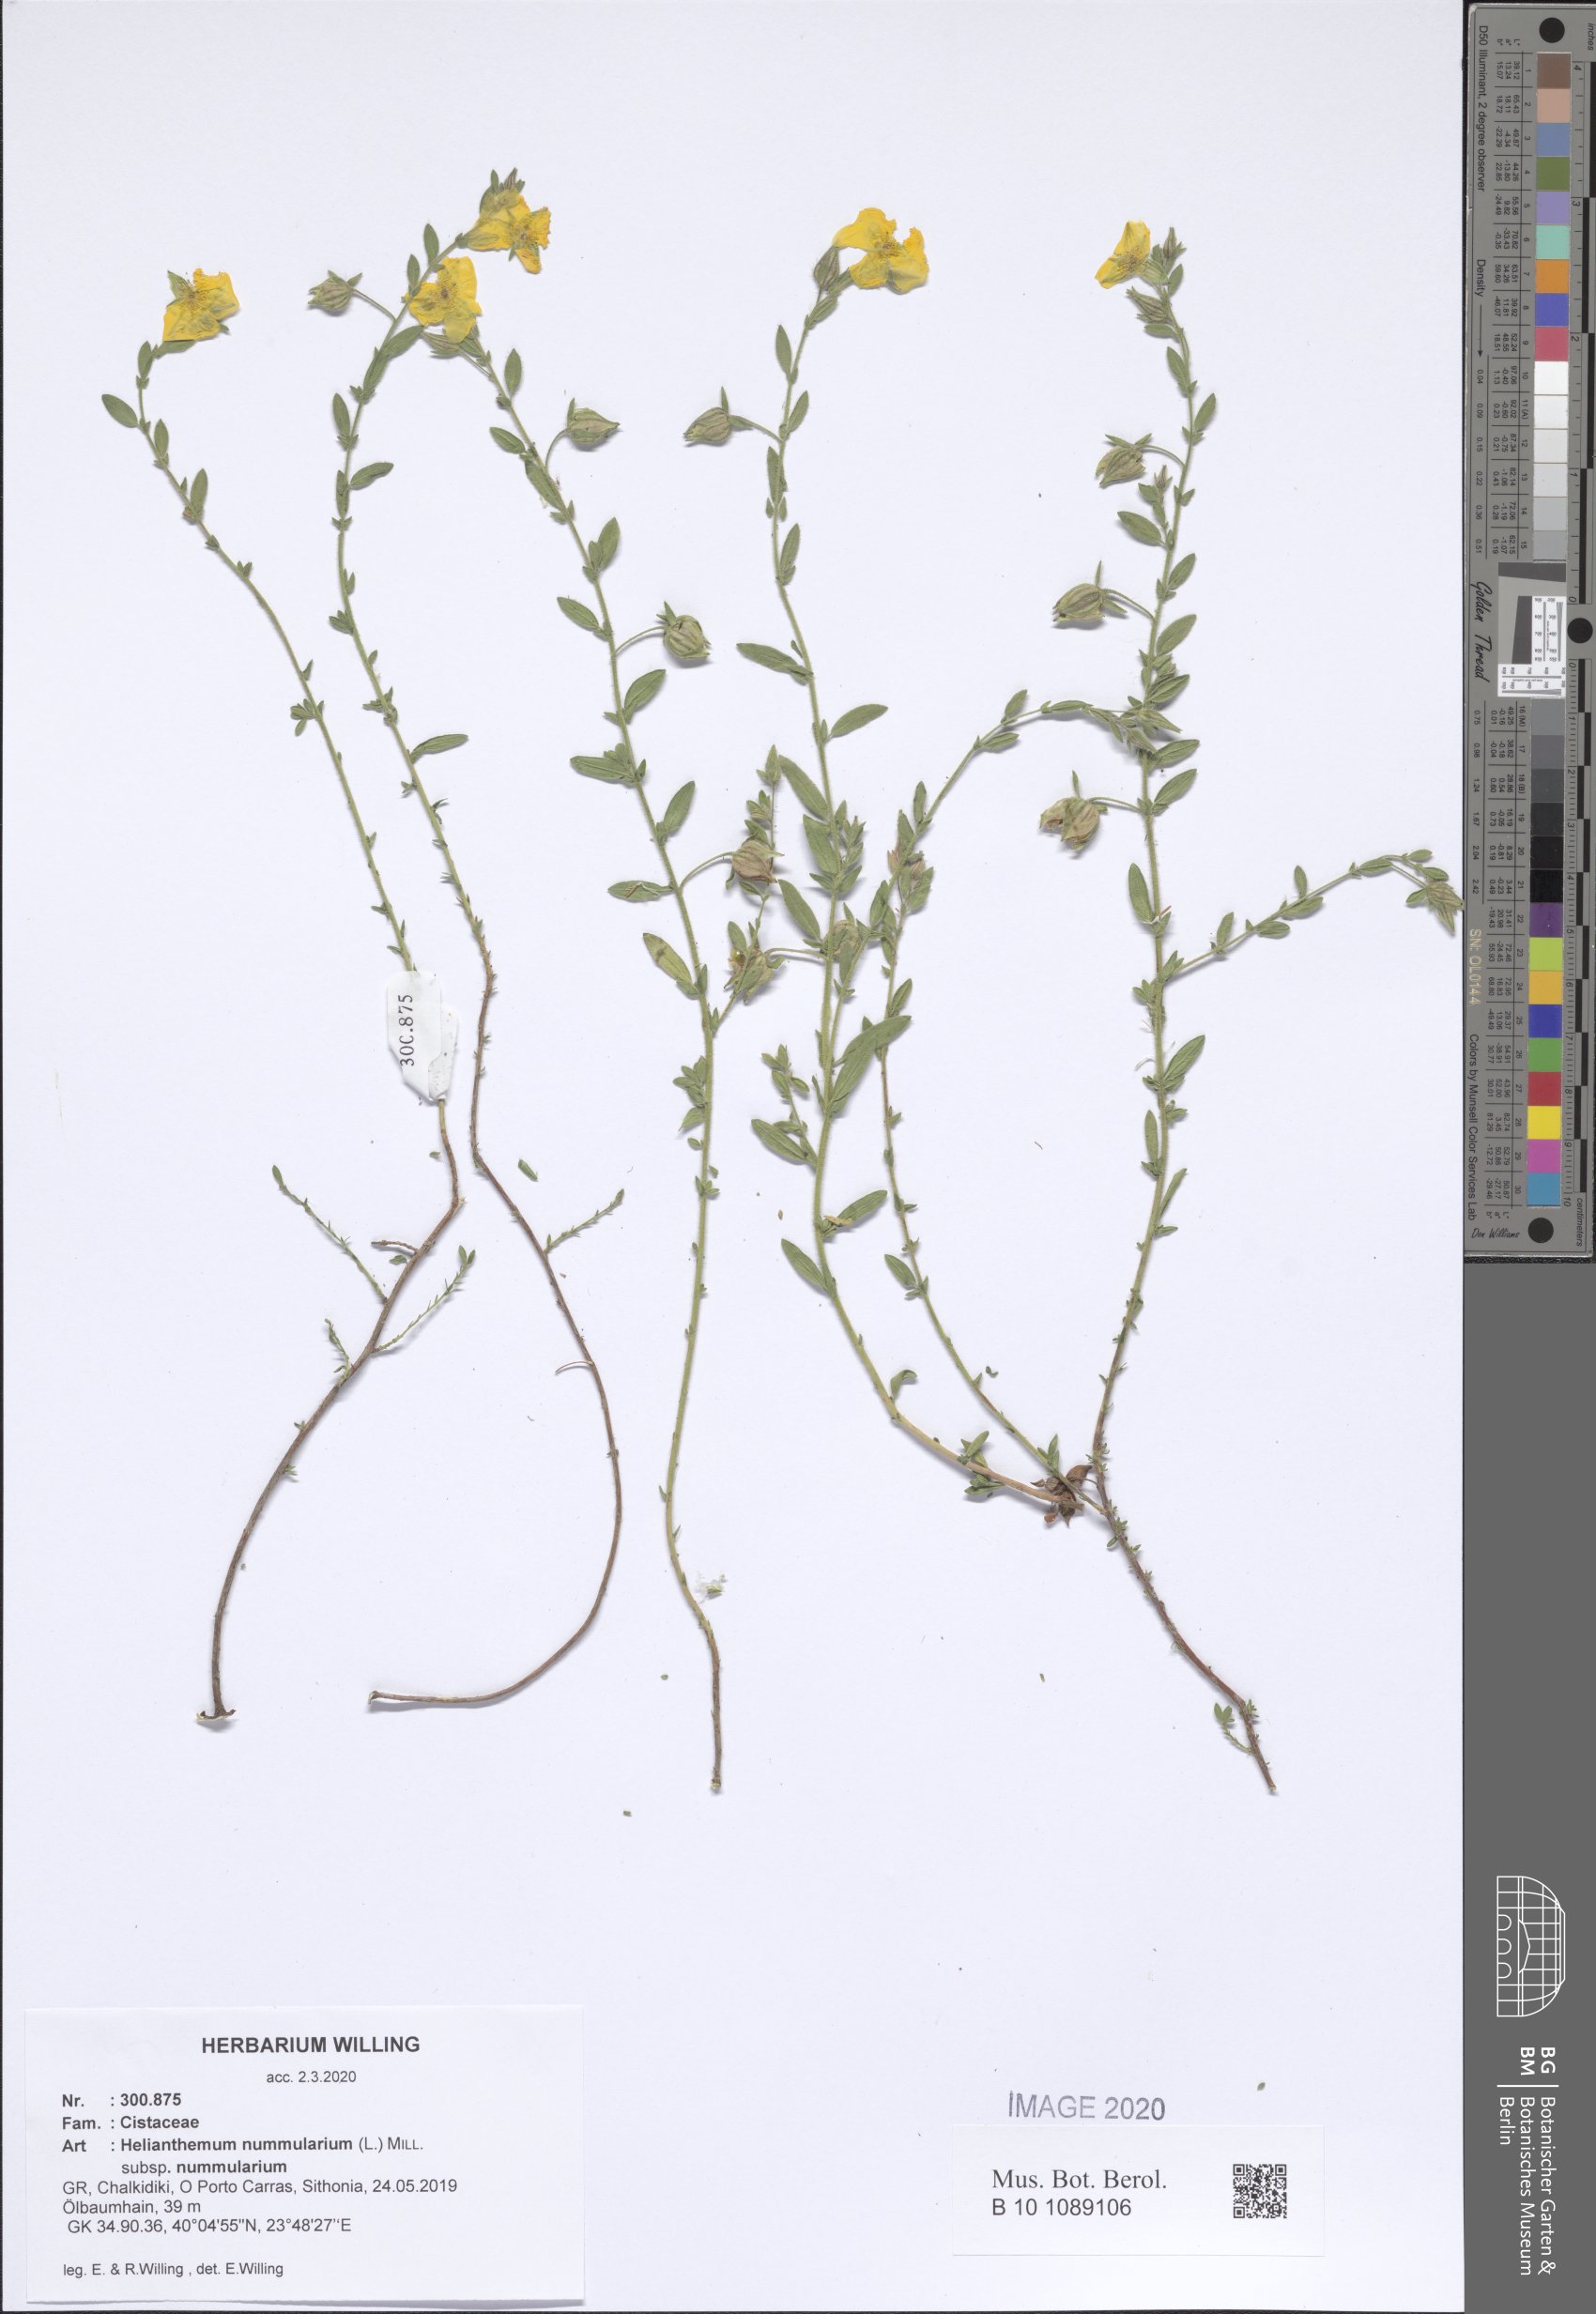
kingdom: Plantae
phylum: Tracheophyta
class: Magnoliopsida
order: Malvales
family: Cistaceae
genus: Helianthemum
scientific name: Helianthemum nummularium
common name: Common rock-rose
